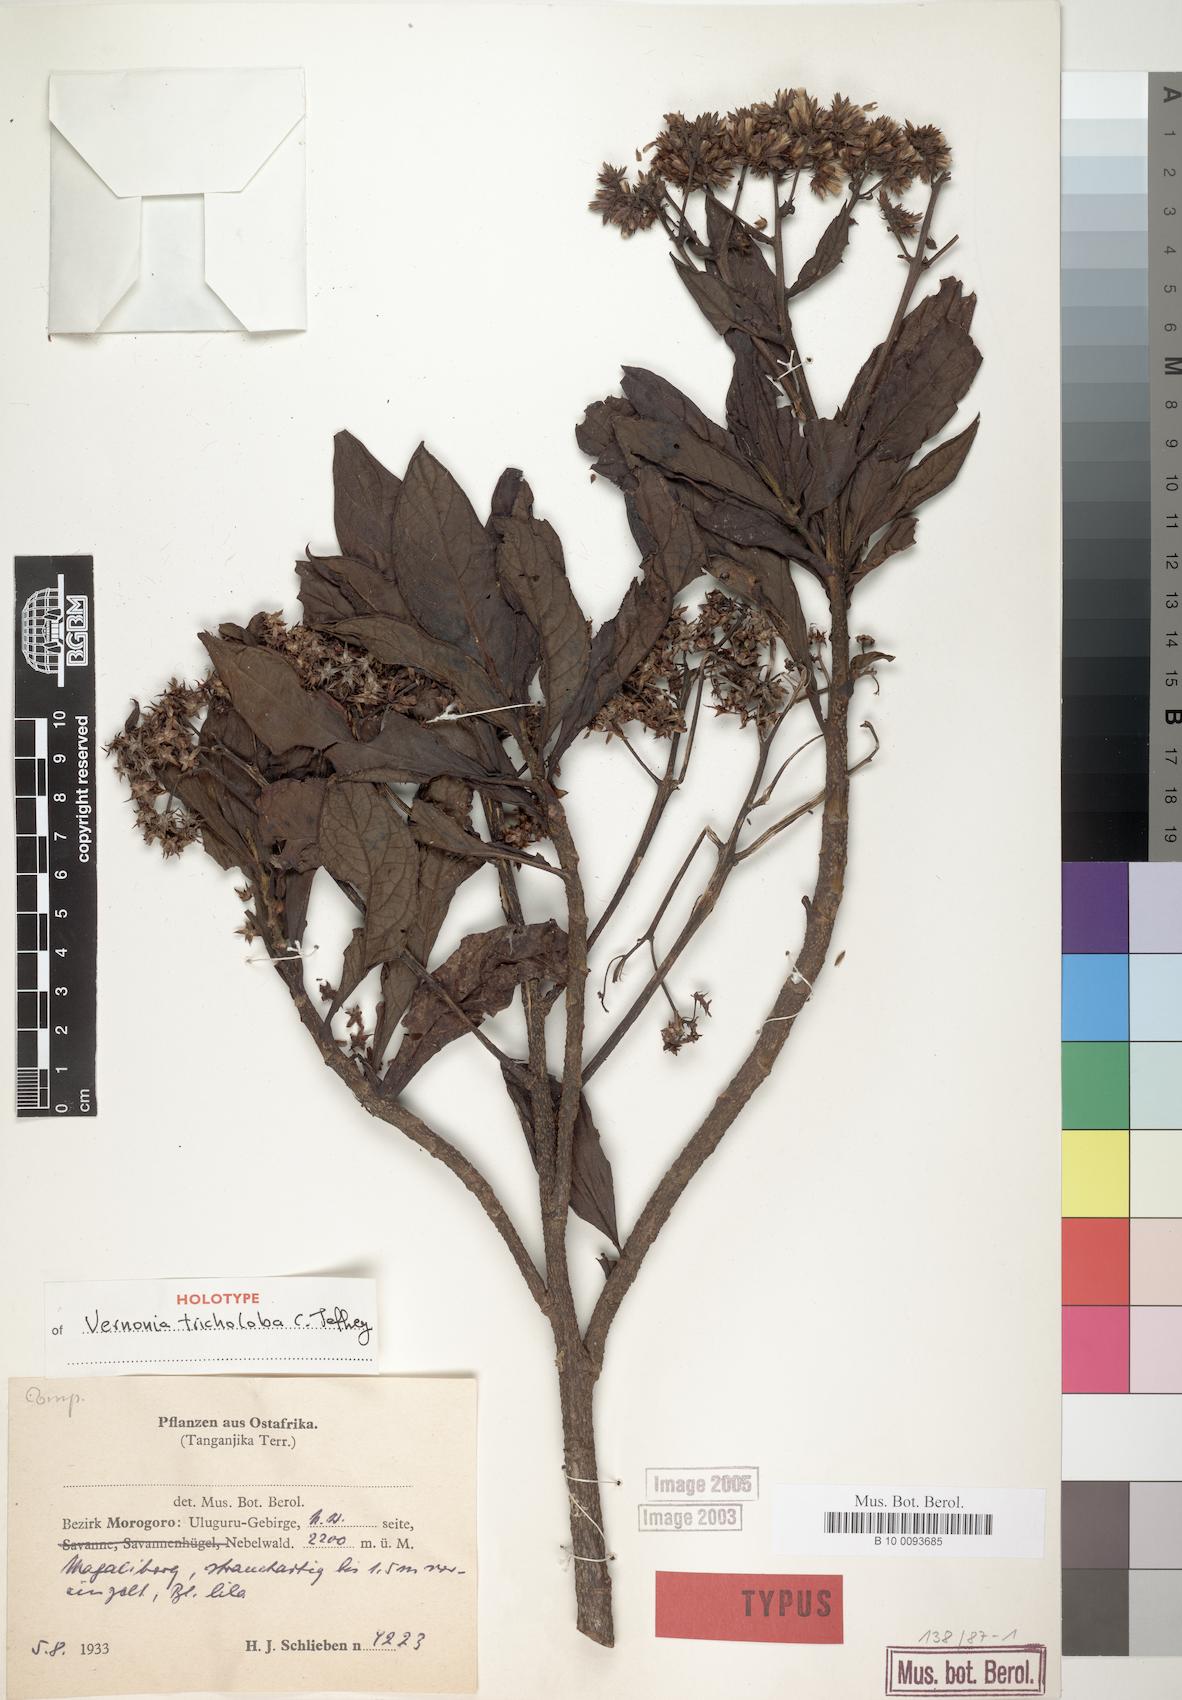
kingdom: Plantae
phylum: Tracheophyta
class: Magnoliopsida
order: Asterales
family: Asteraceae
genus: Vernonia
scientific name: Vernonia tricholoba
